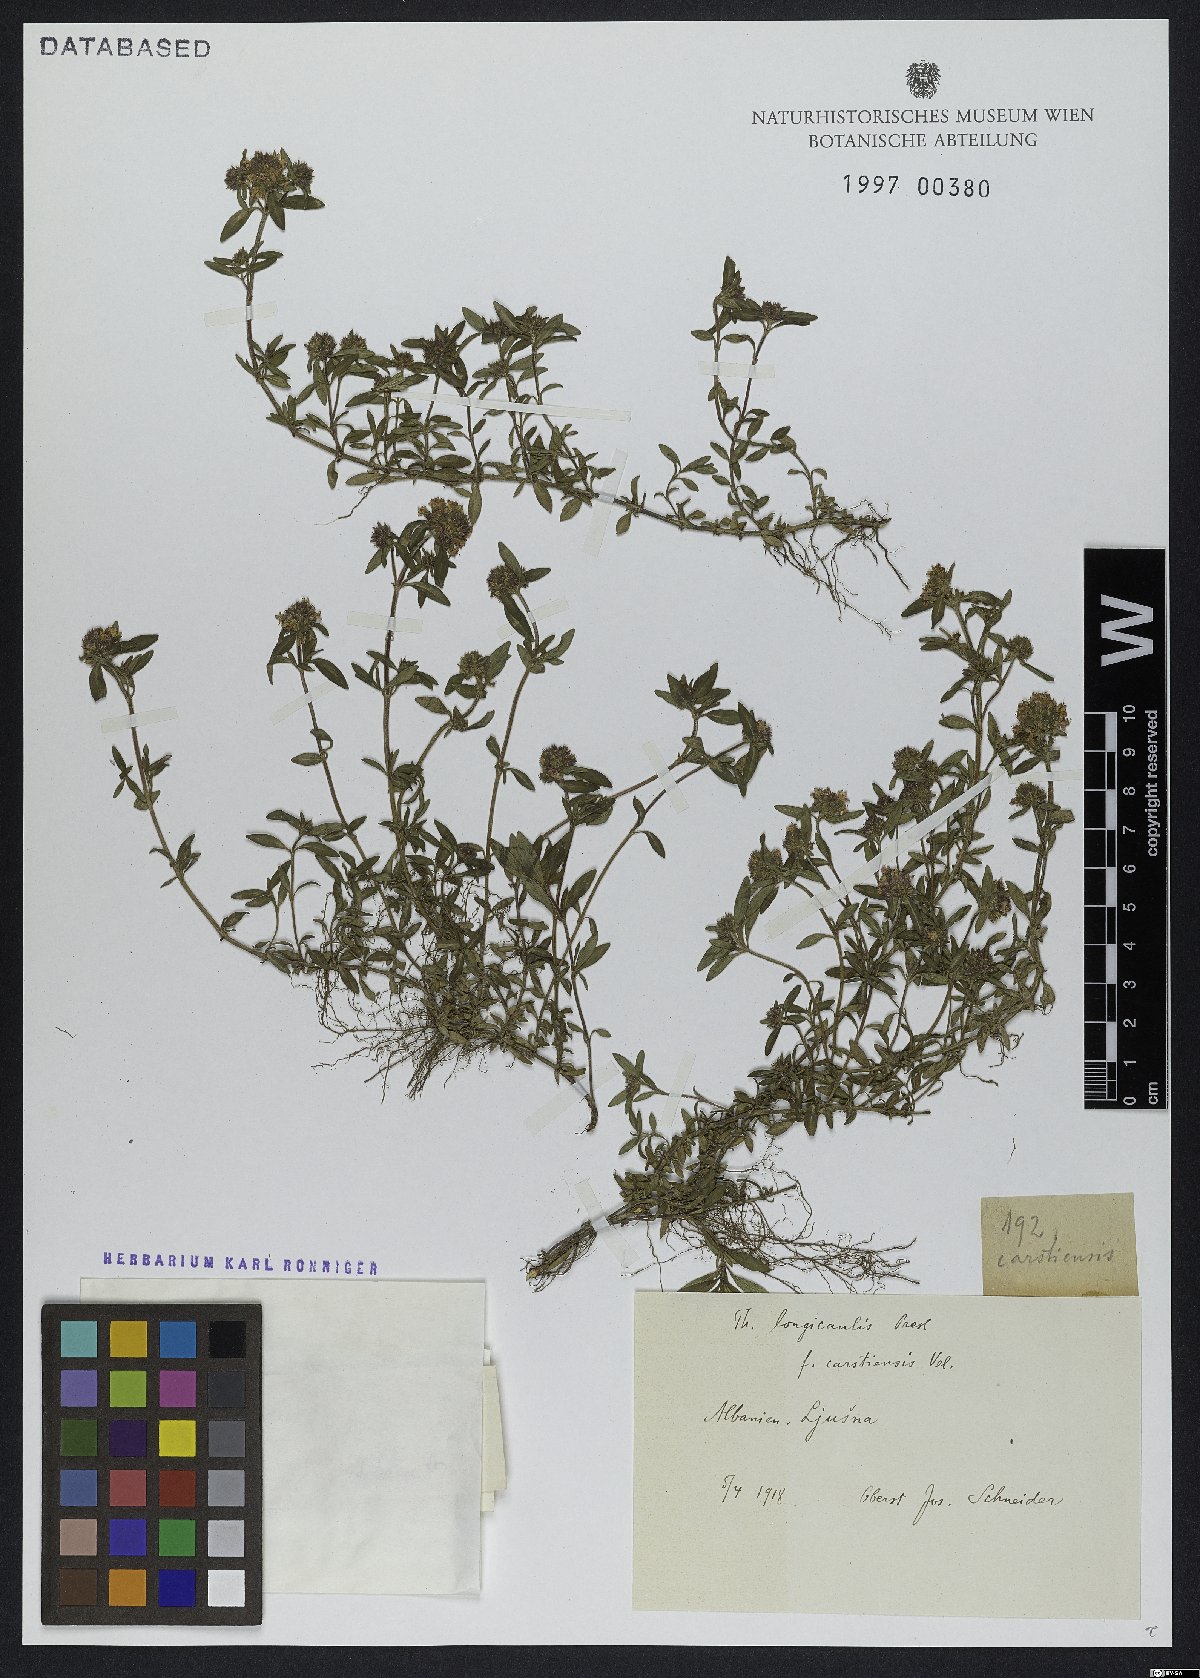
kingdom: Plantae
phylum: Tracheophyta
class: Magnoliopsida
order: Lamiales
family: Lamiaceae
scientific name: Lamiaceae
